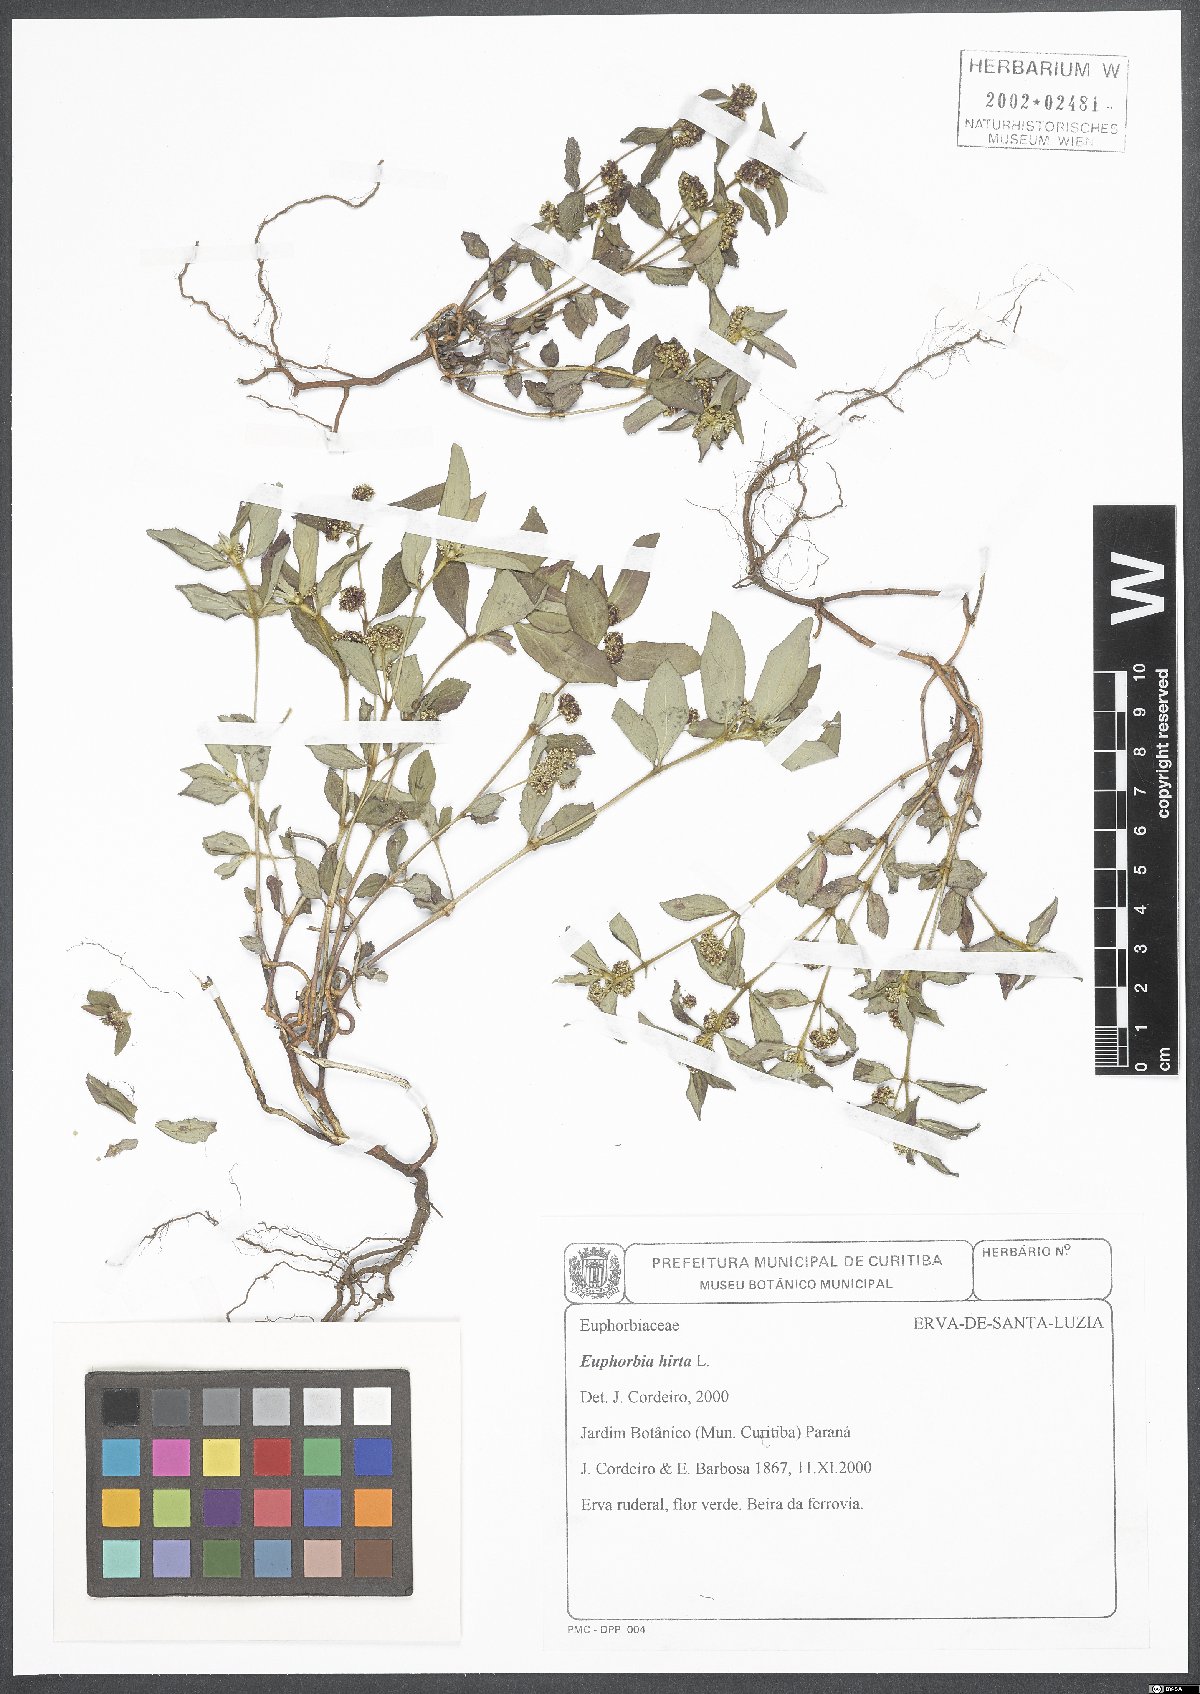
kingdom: Plantae
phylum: Tracheophyta
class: Magnoliopsida
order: Malpighiales
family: Euphorbiaceae
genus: Euphorbia
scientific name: Euphorbia hirta
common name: Pillpod sandmat
